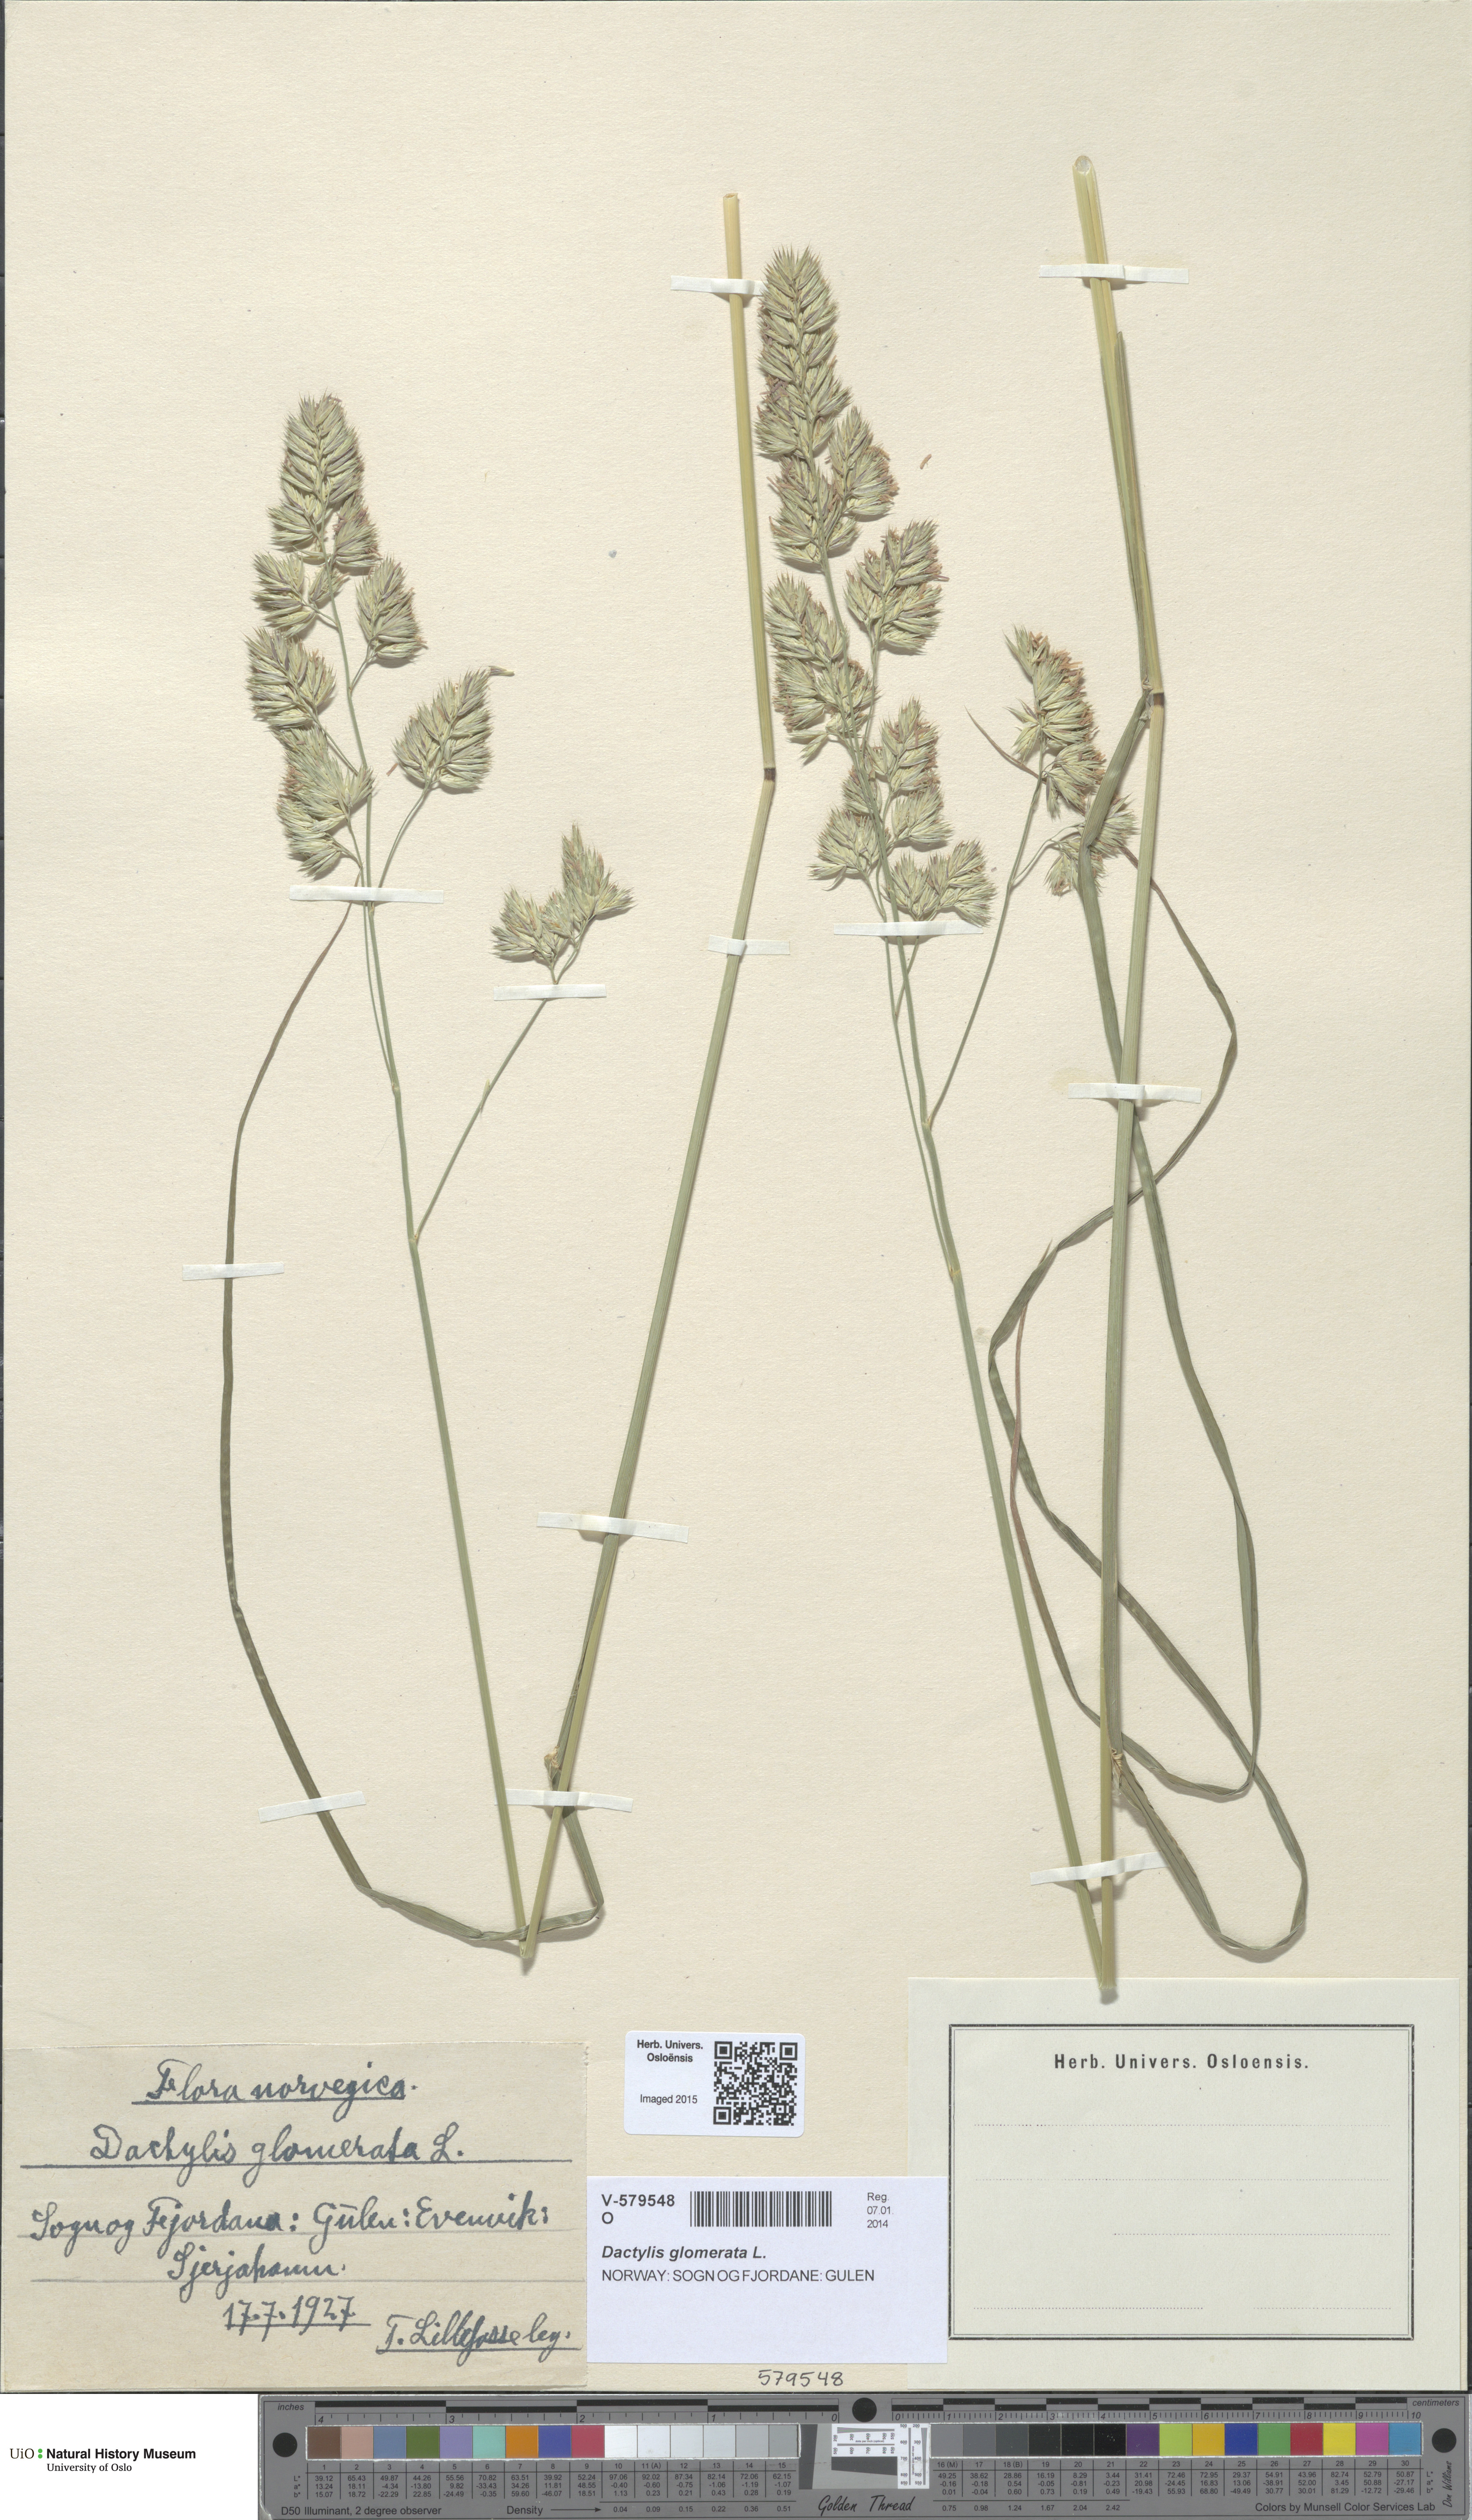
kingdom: Plantae
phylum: Tracheophyta
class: Liliopsida
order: Poales
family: Poaceae
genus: Dactylis
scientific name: Dactylis glomerata
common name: Orchardgrass
